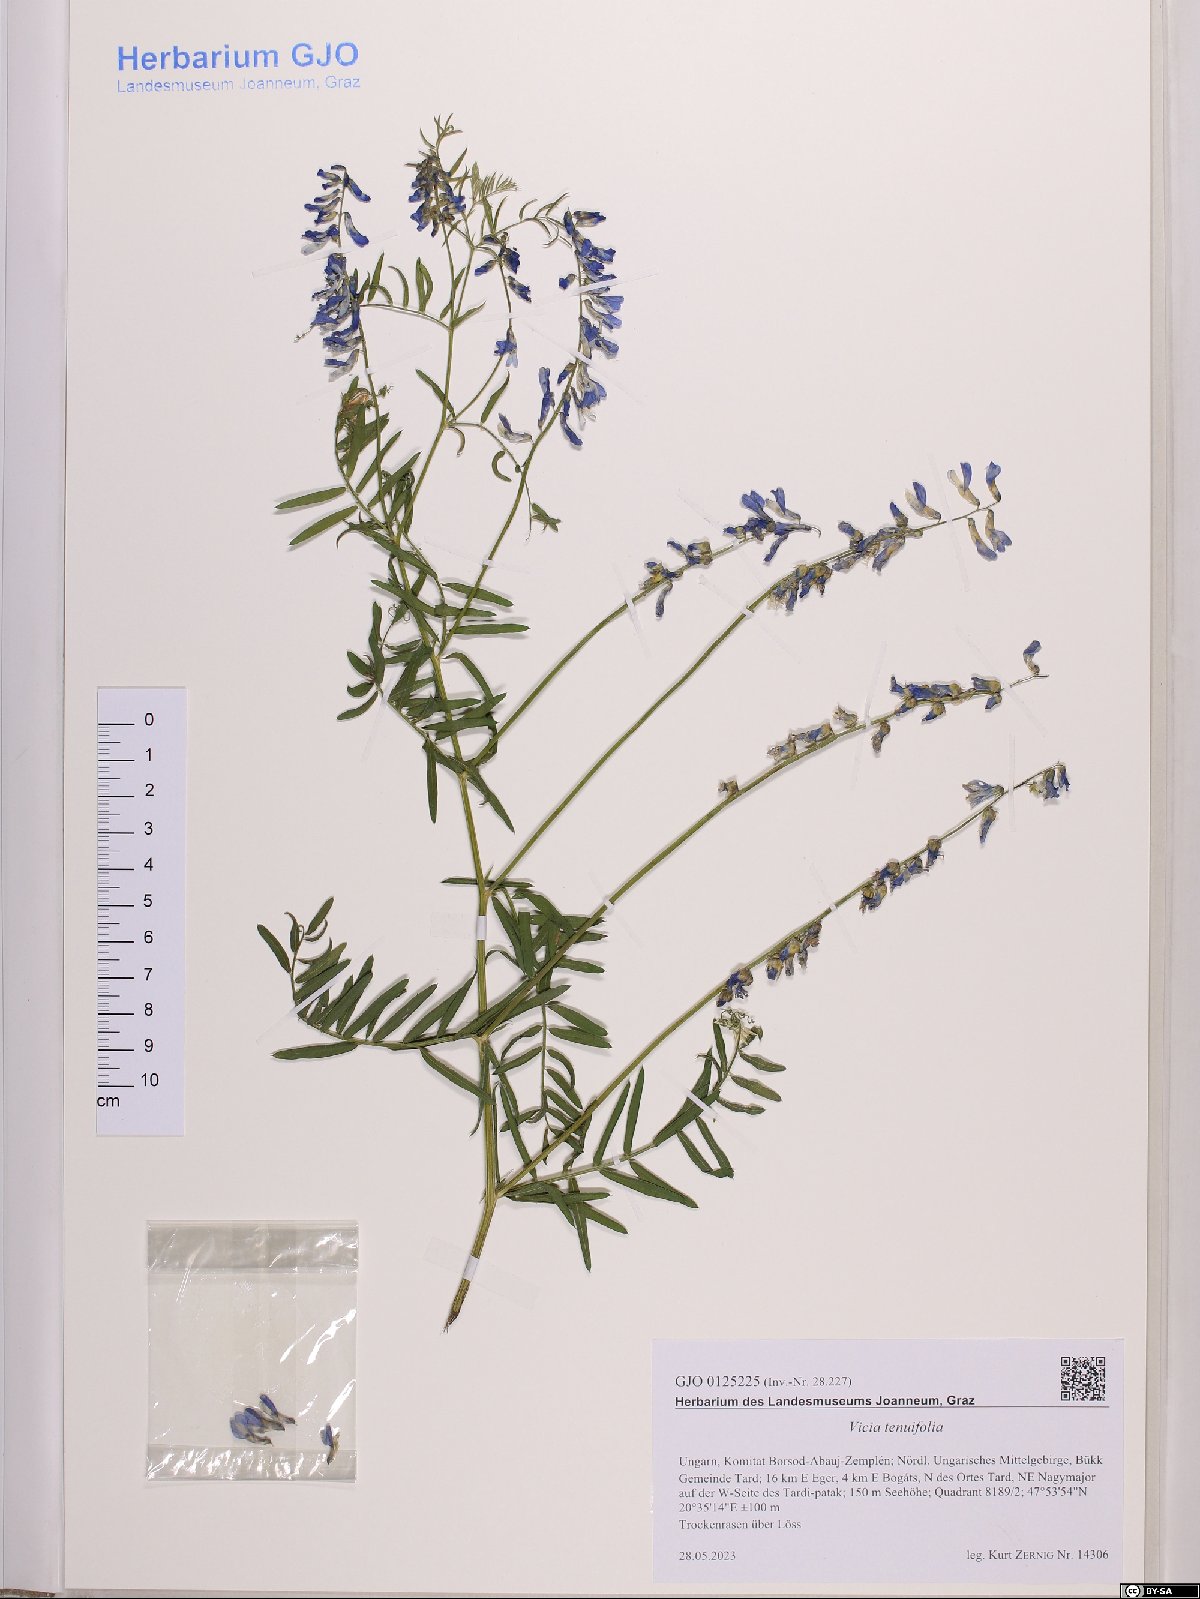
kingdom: Plantae
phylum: Tracheophyta
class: Magnoliopsida
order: Fabales
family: Fabaceae
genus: Vicia
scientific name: Vicia tenuifolia
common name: Fine-leaved vetch
